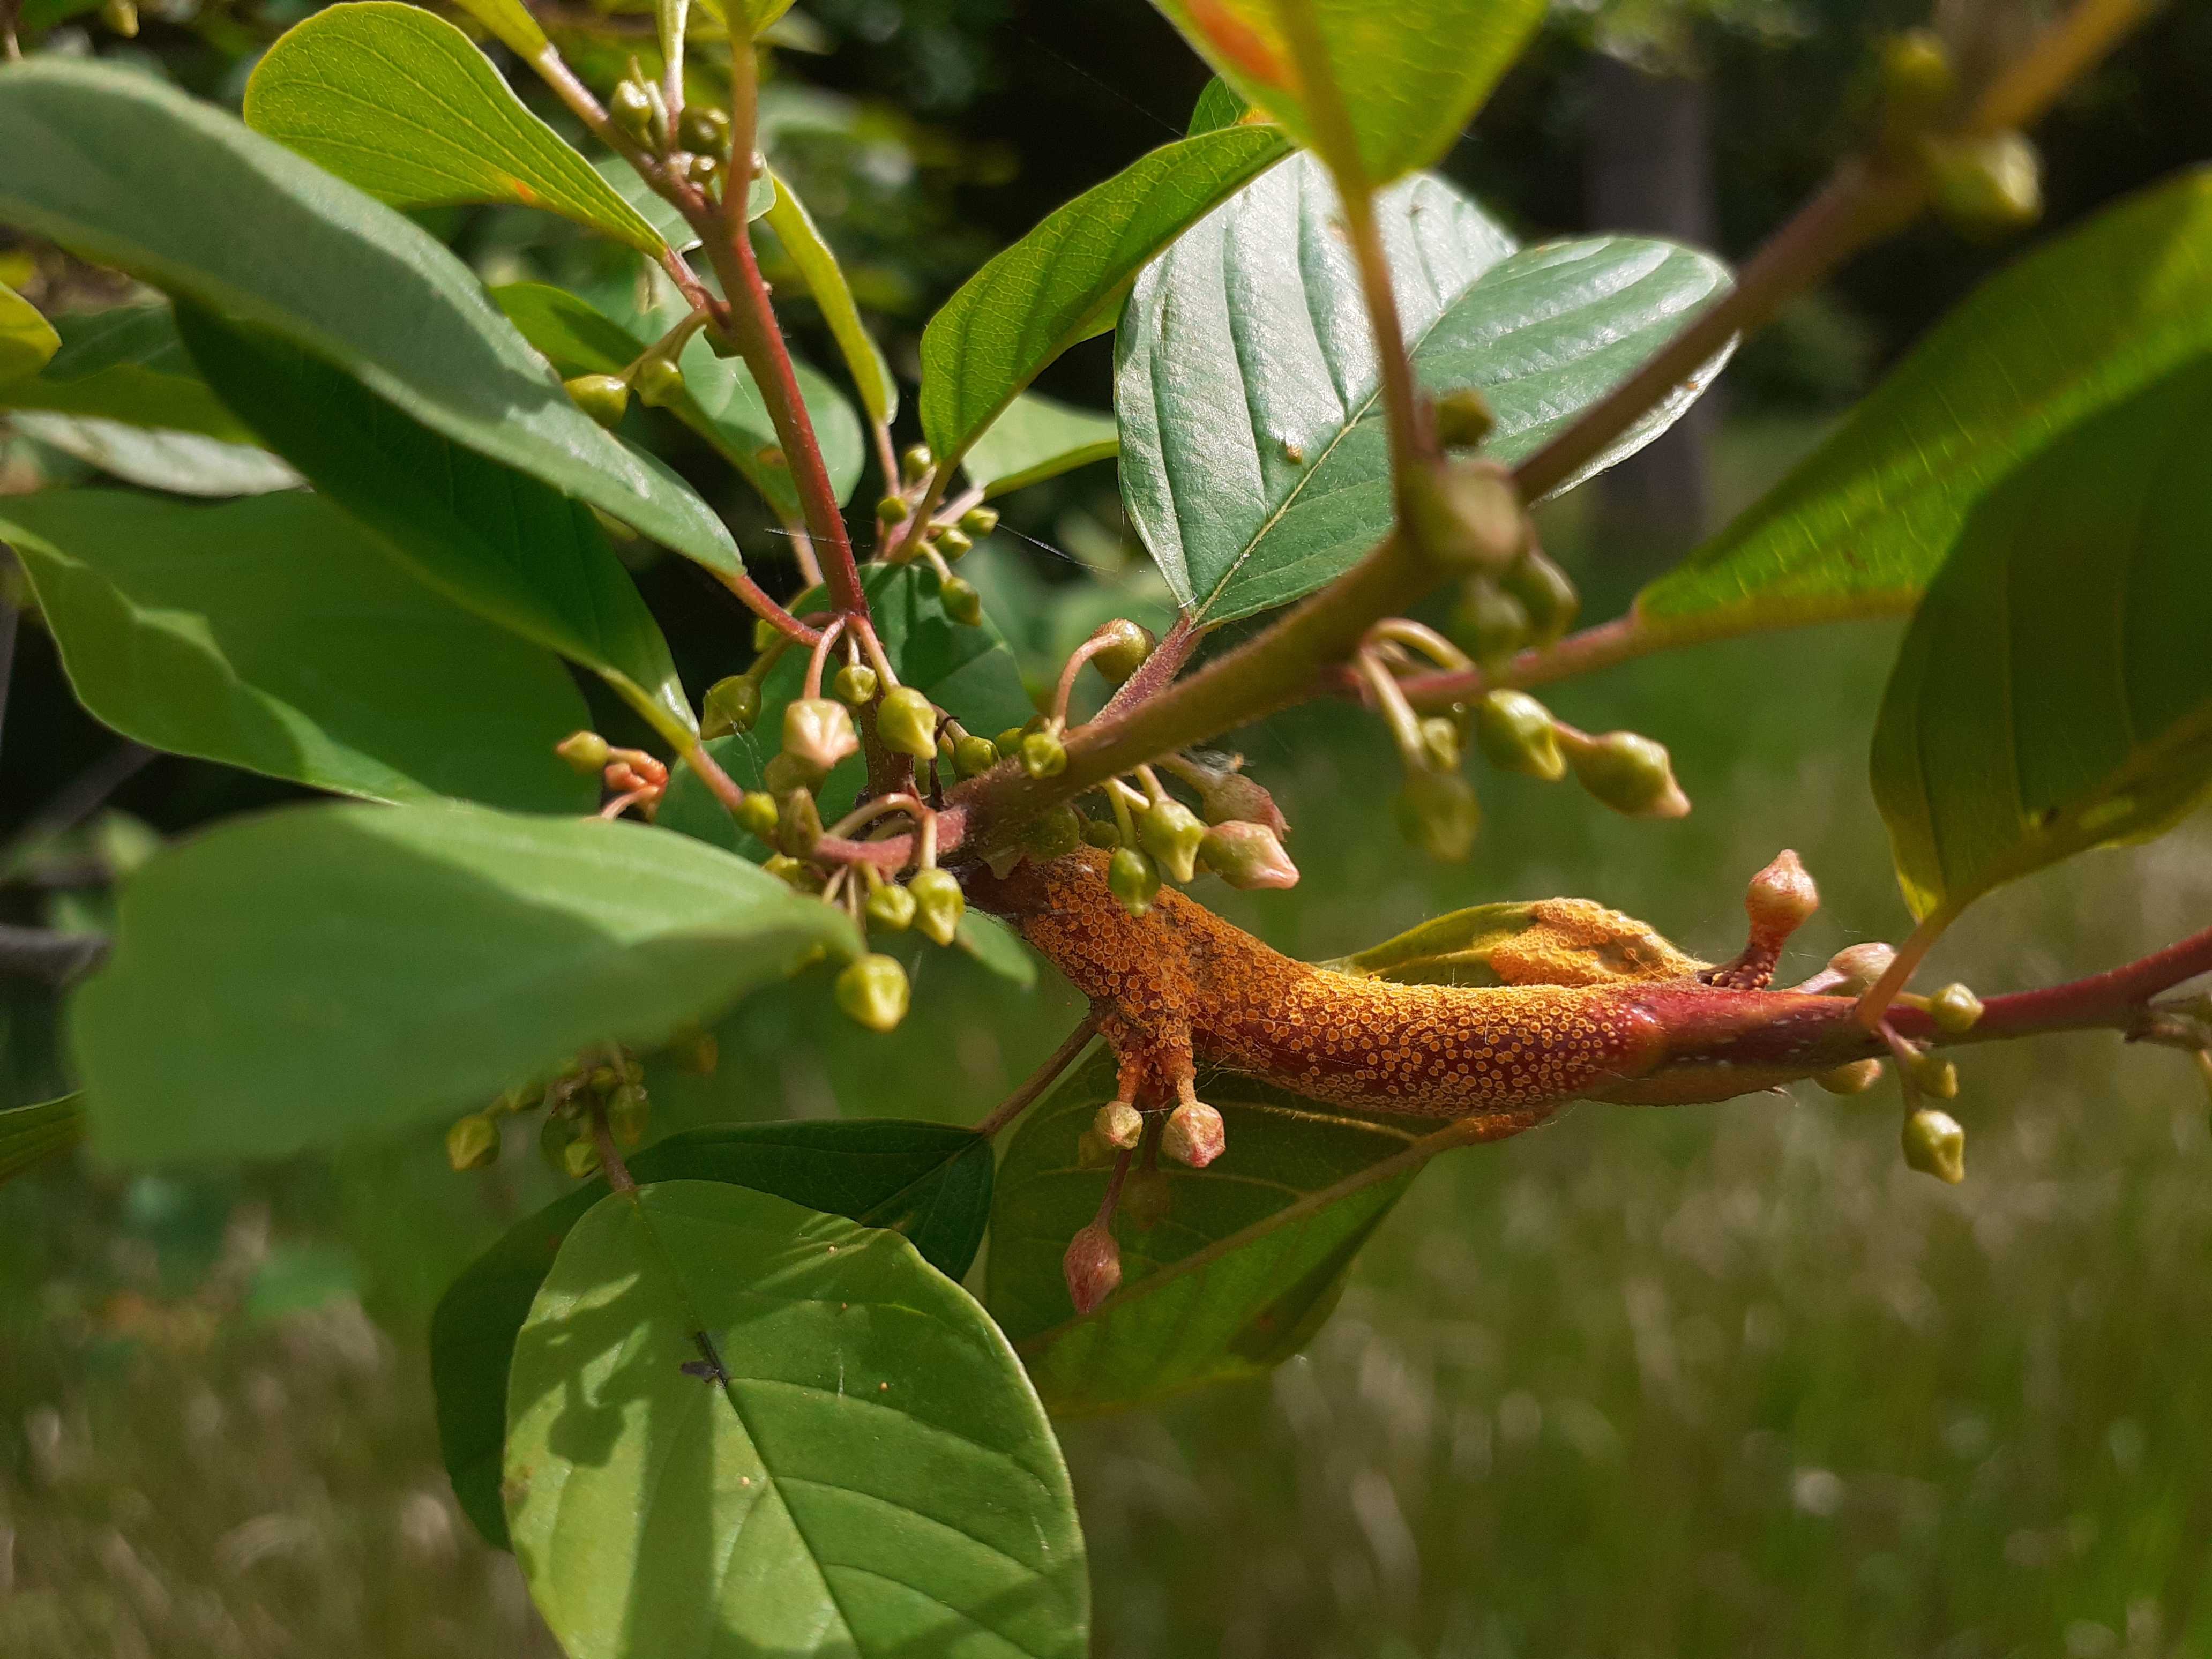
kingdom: Fungi
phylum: Basidiomycota
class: Pucciniomycetes
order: Pucciniales
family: Pucciniaceae
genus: Puccinia
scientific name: Puccinia coronata
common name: Crown rust
